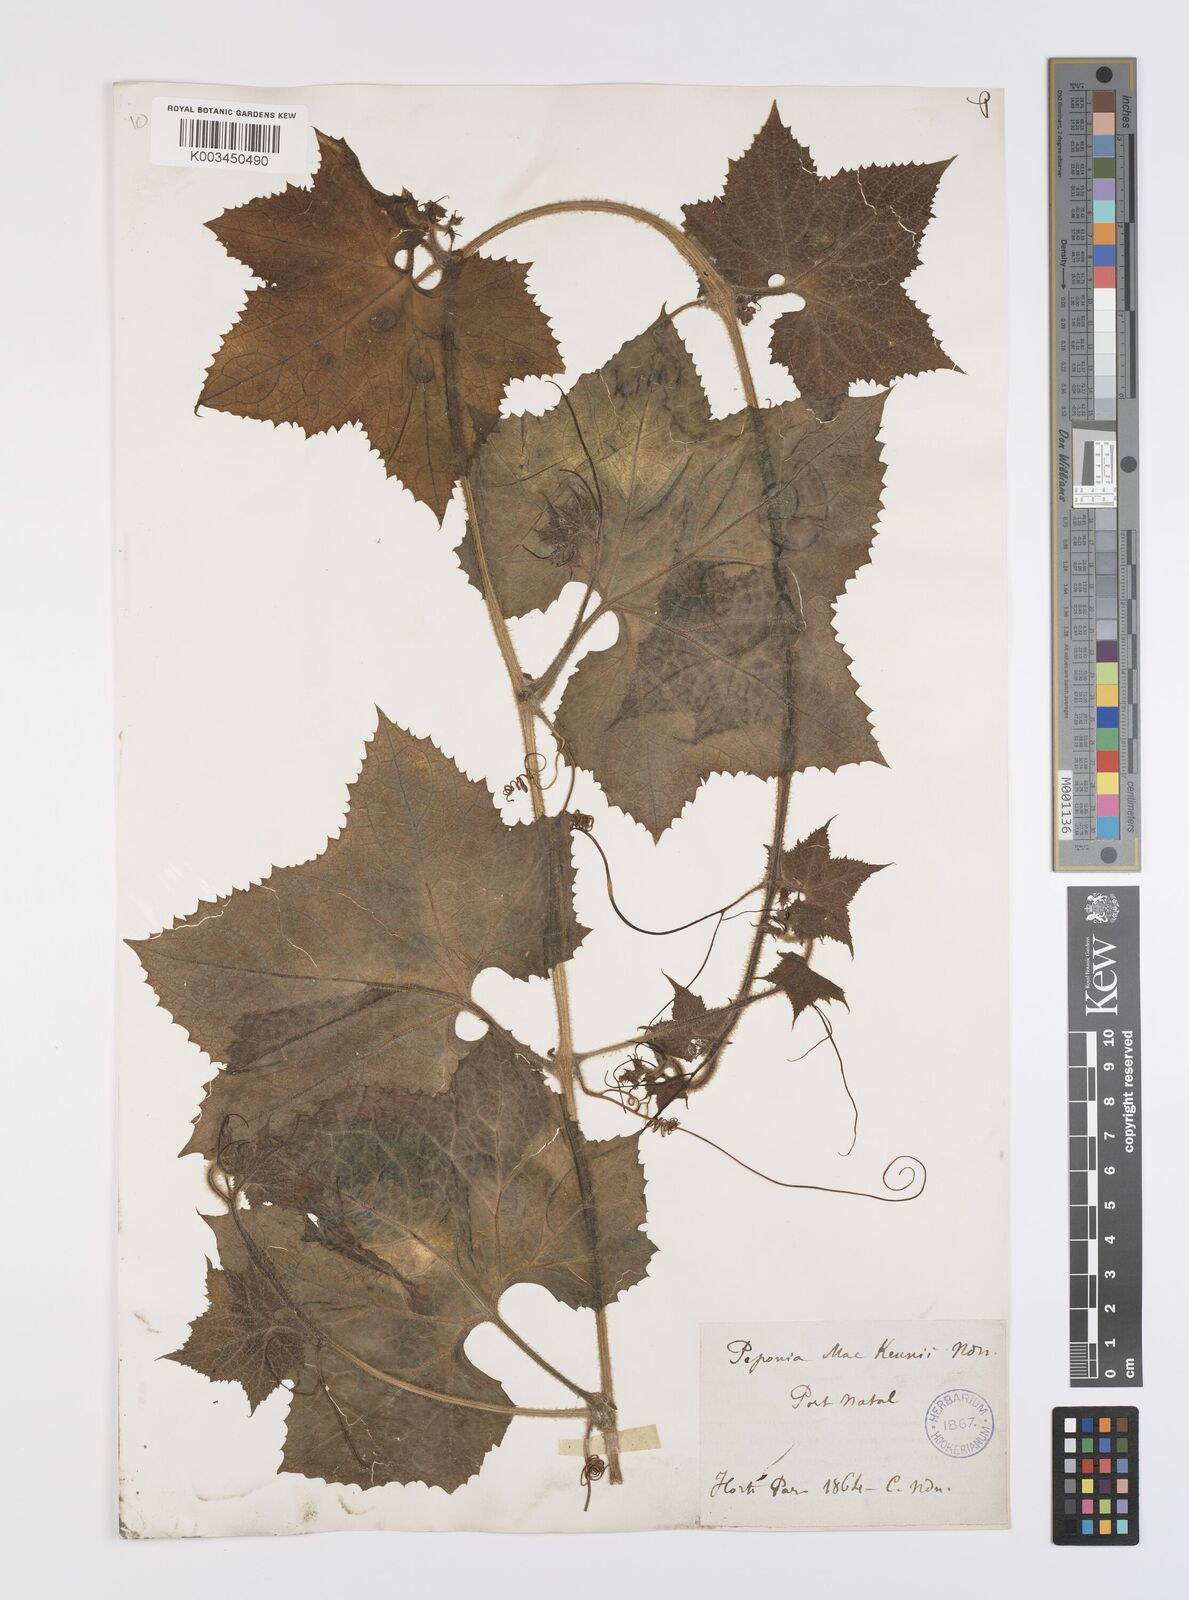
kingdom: Plantae
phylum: Tracheophyta
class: Magnoliopsida
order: Cucurbitales
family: Cucurbitaceae
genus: Peponium
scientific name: Peponium mackenii
